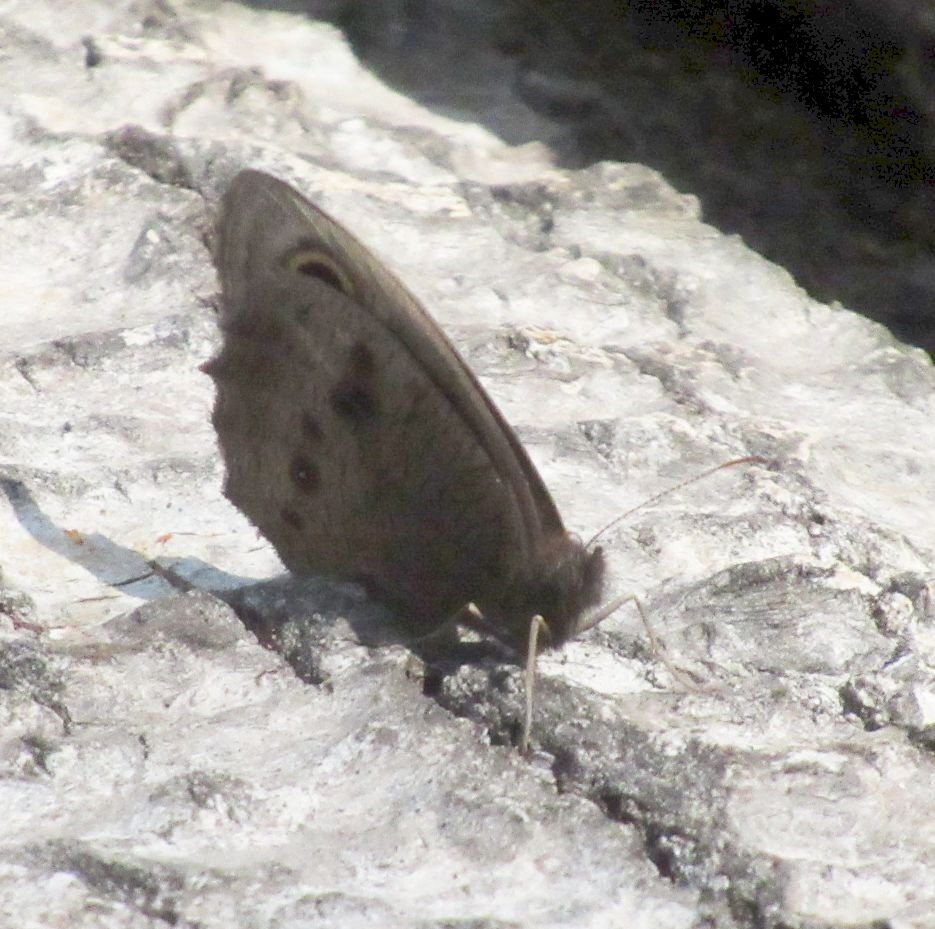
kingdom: Animalia
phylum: Arthropoda
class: Insecta
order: Lepidoptera
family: Nymphalidae
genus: Cercyonis
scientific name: Cercyonis pegala
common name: Common Wood-Nymph
